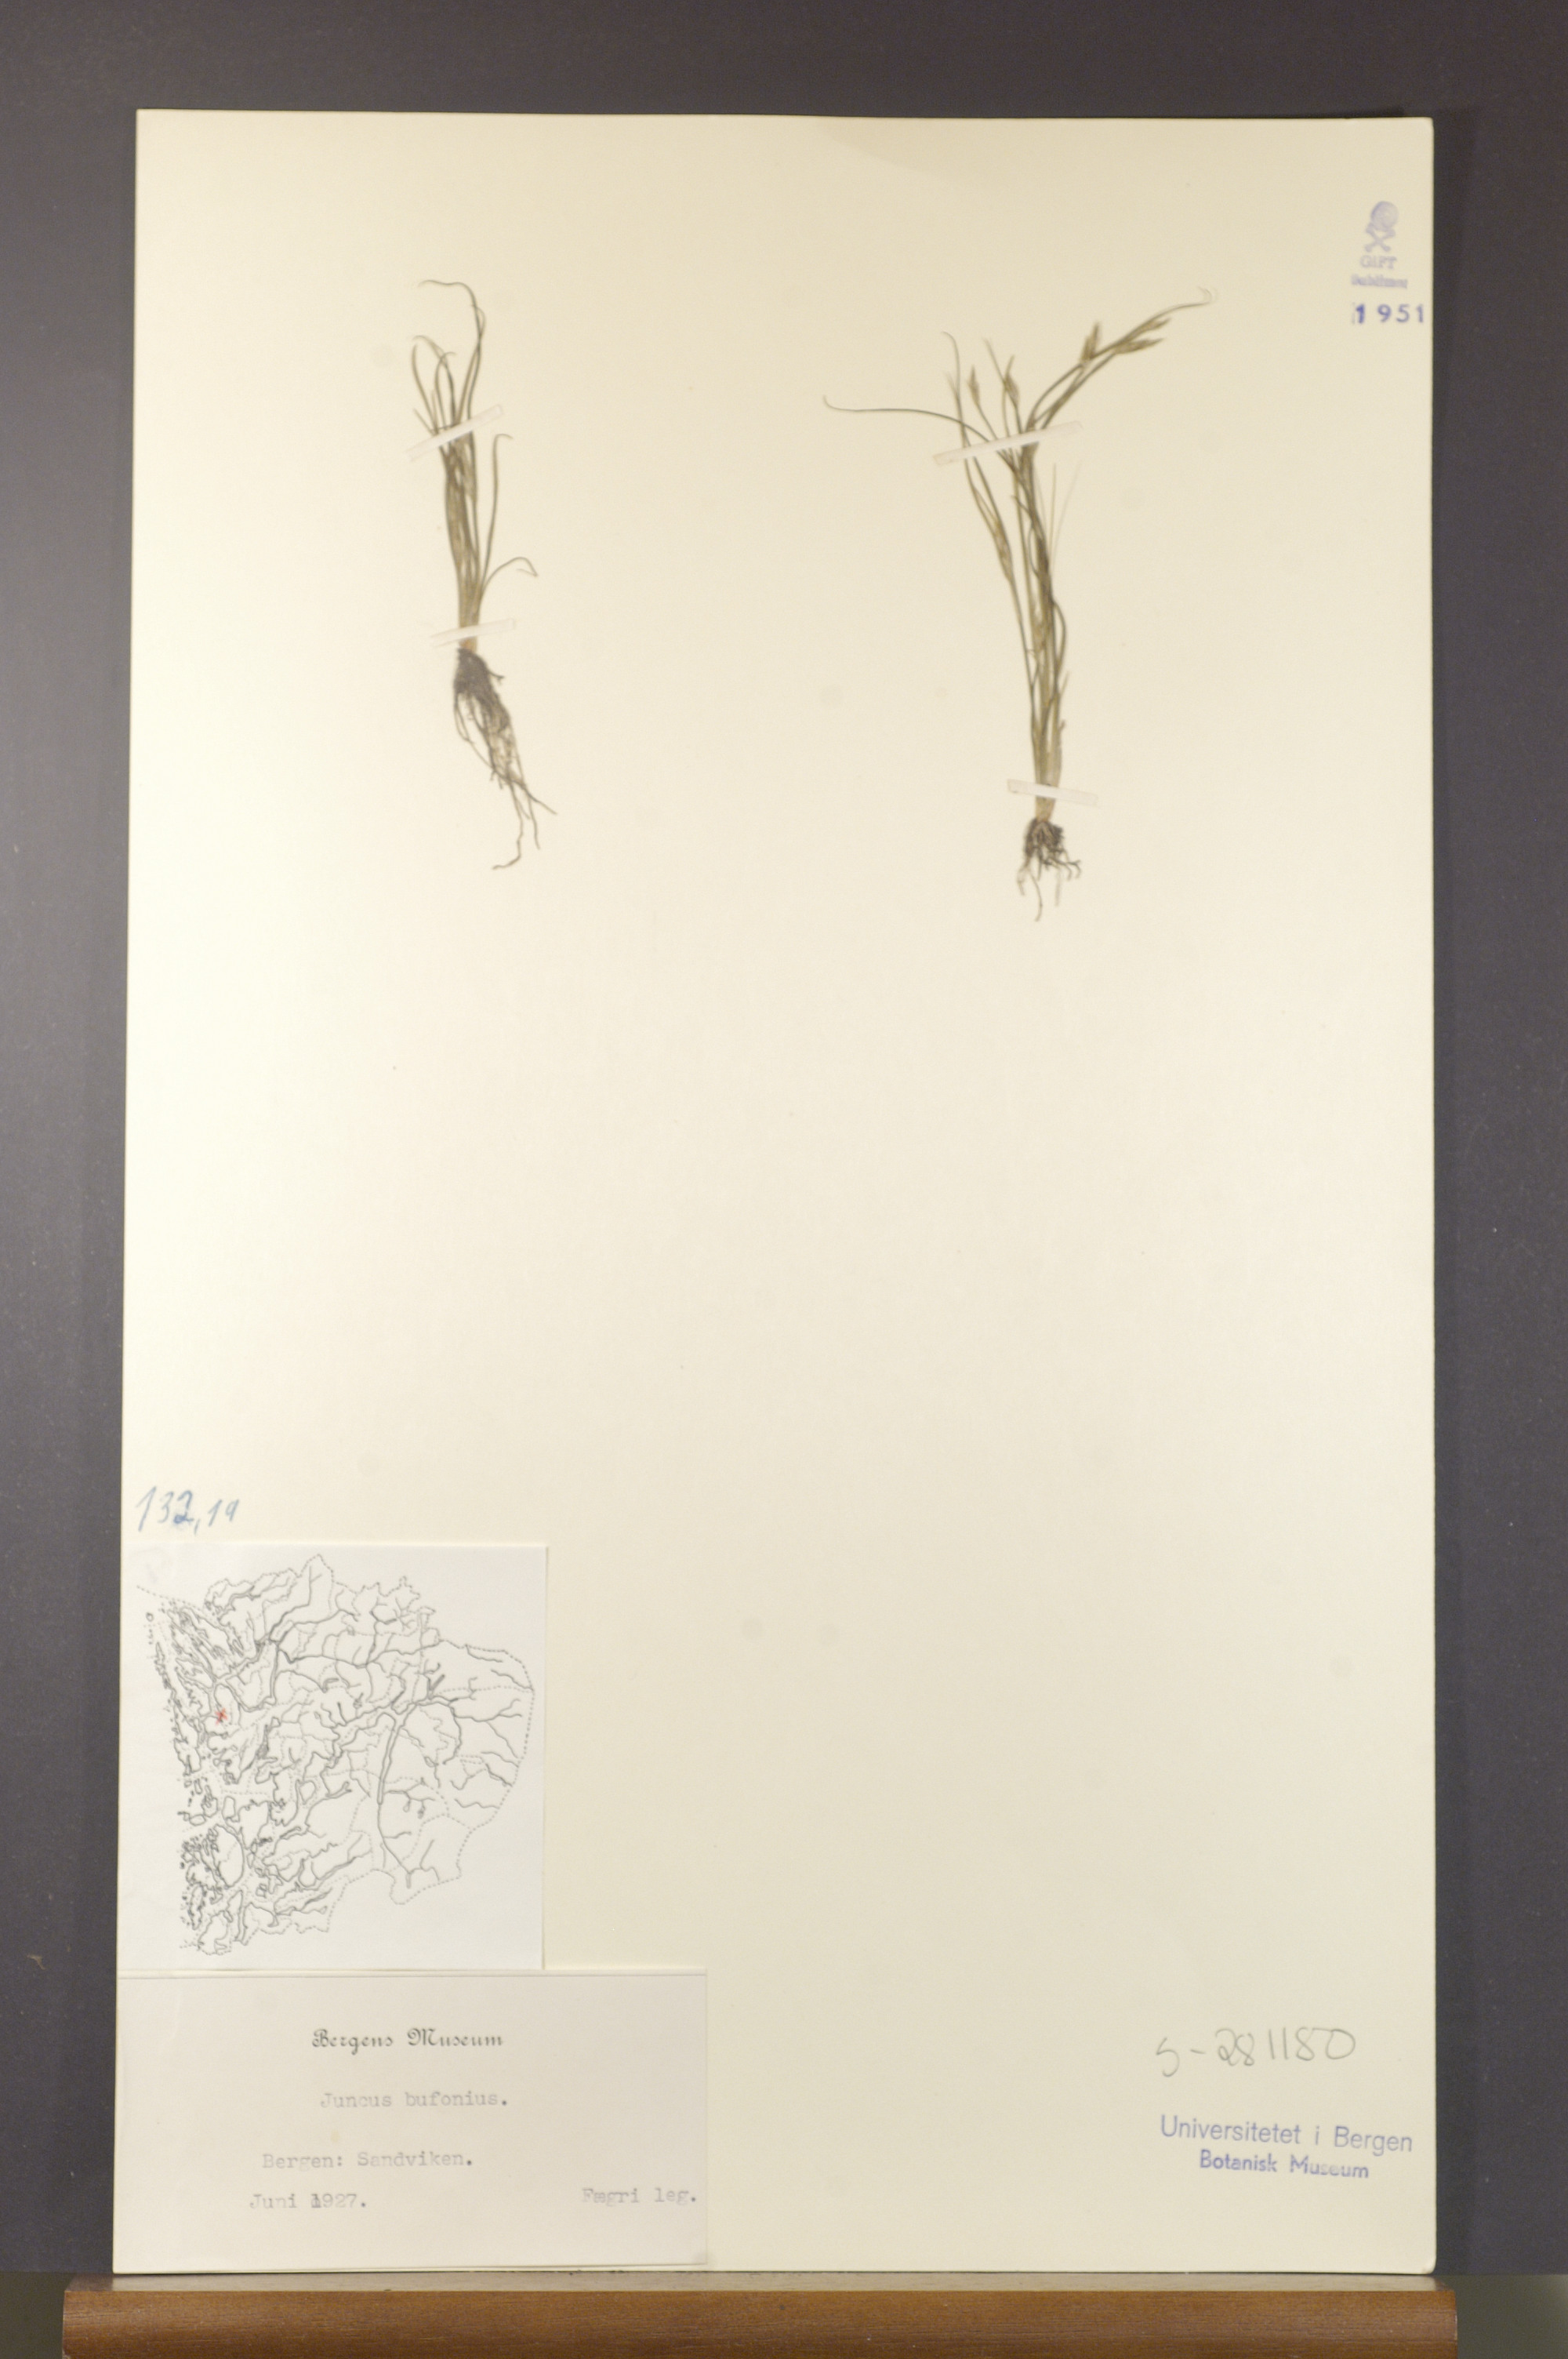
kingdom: Plantae
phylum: Tracheophyta
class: Liliopsida
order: Poales
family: Juncaceae
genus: Juncus
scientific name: Juncus bufonius
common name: Toad rush
